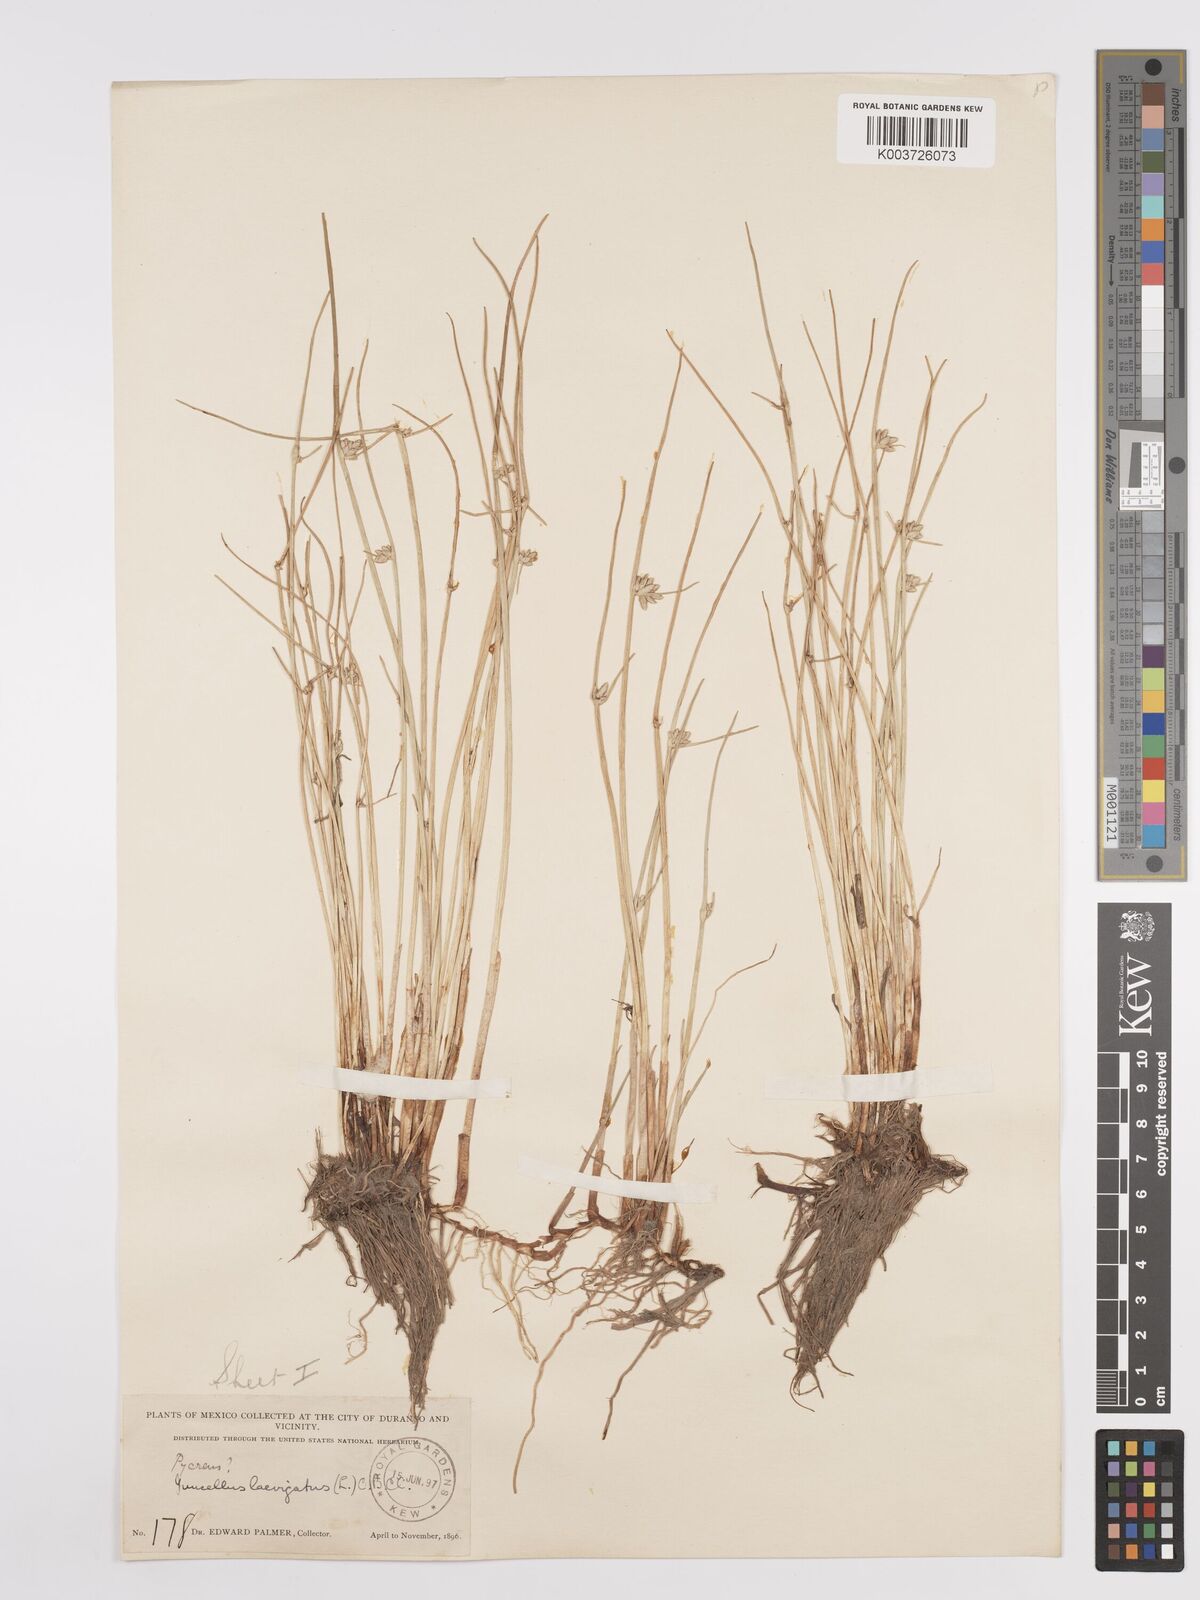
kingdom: Plantae
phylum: Tracheophyta
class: Liliopsida
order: Poales
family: Cyperaceae
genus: Cyperus
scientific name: Cyperus laevigatus
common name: Smooth flat sedge
